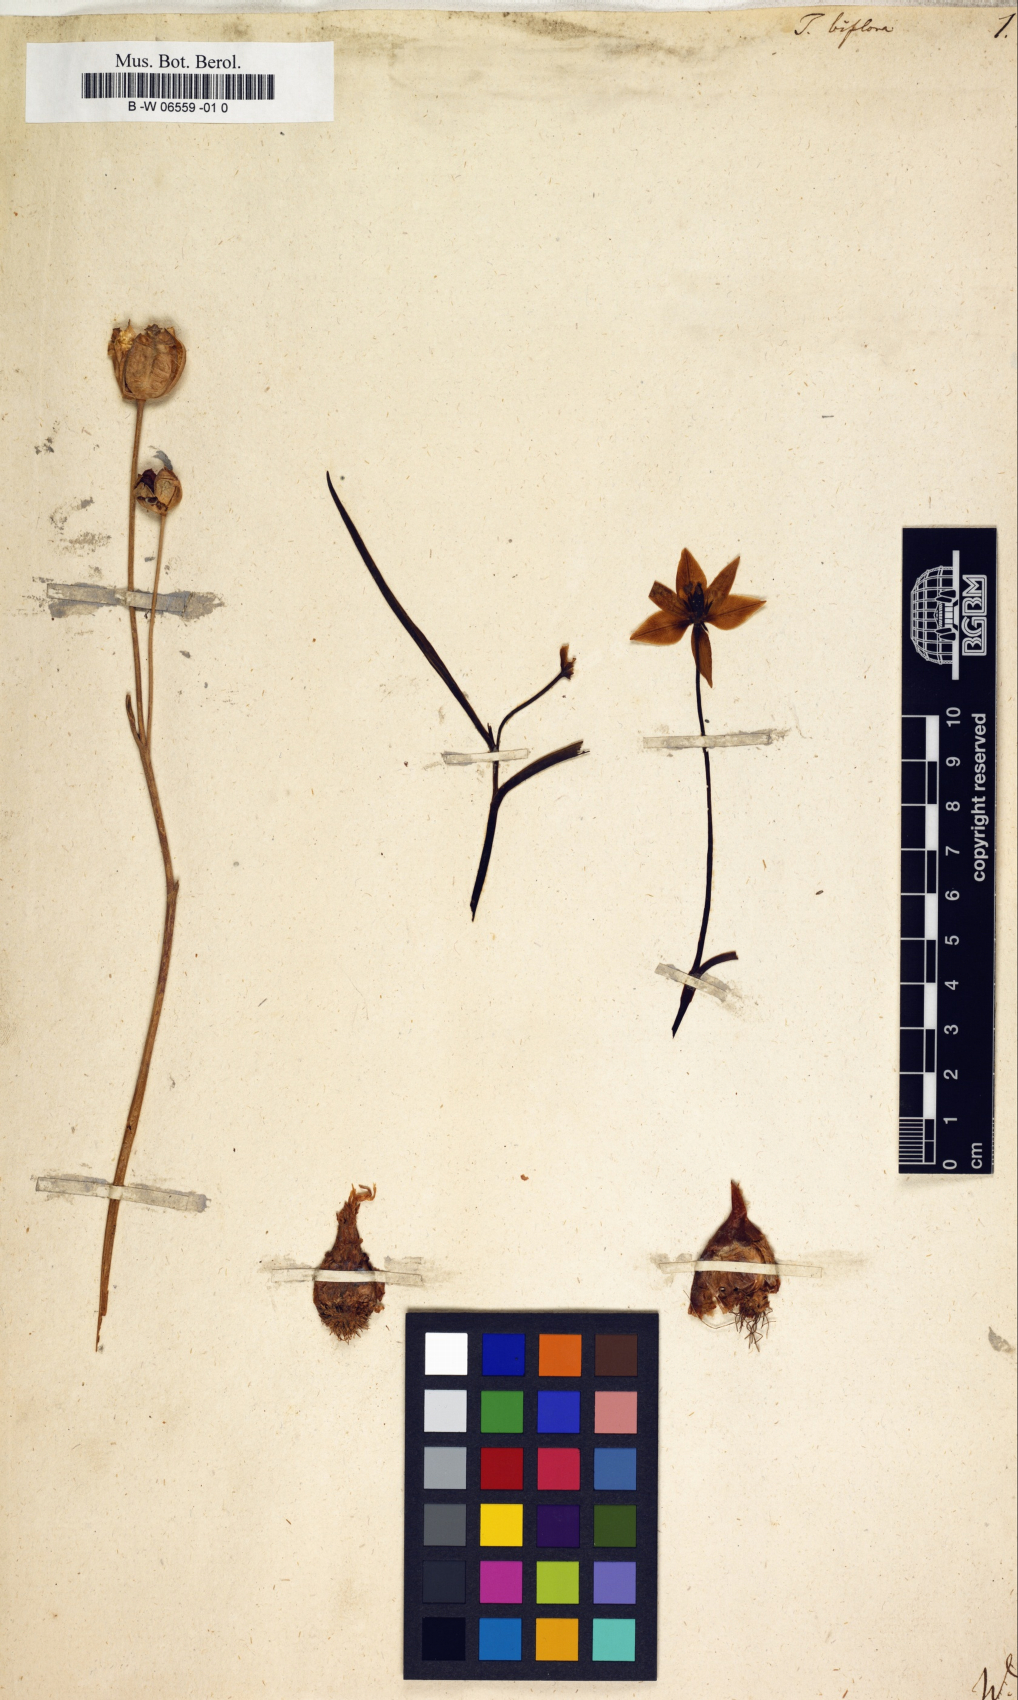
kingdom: Plantae
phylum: Tracheophyta
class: Liliopsida
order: Liliales
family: Liliaceae
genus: Tulipa
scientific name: Tulipa biflora
